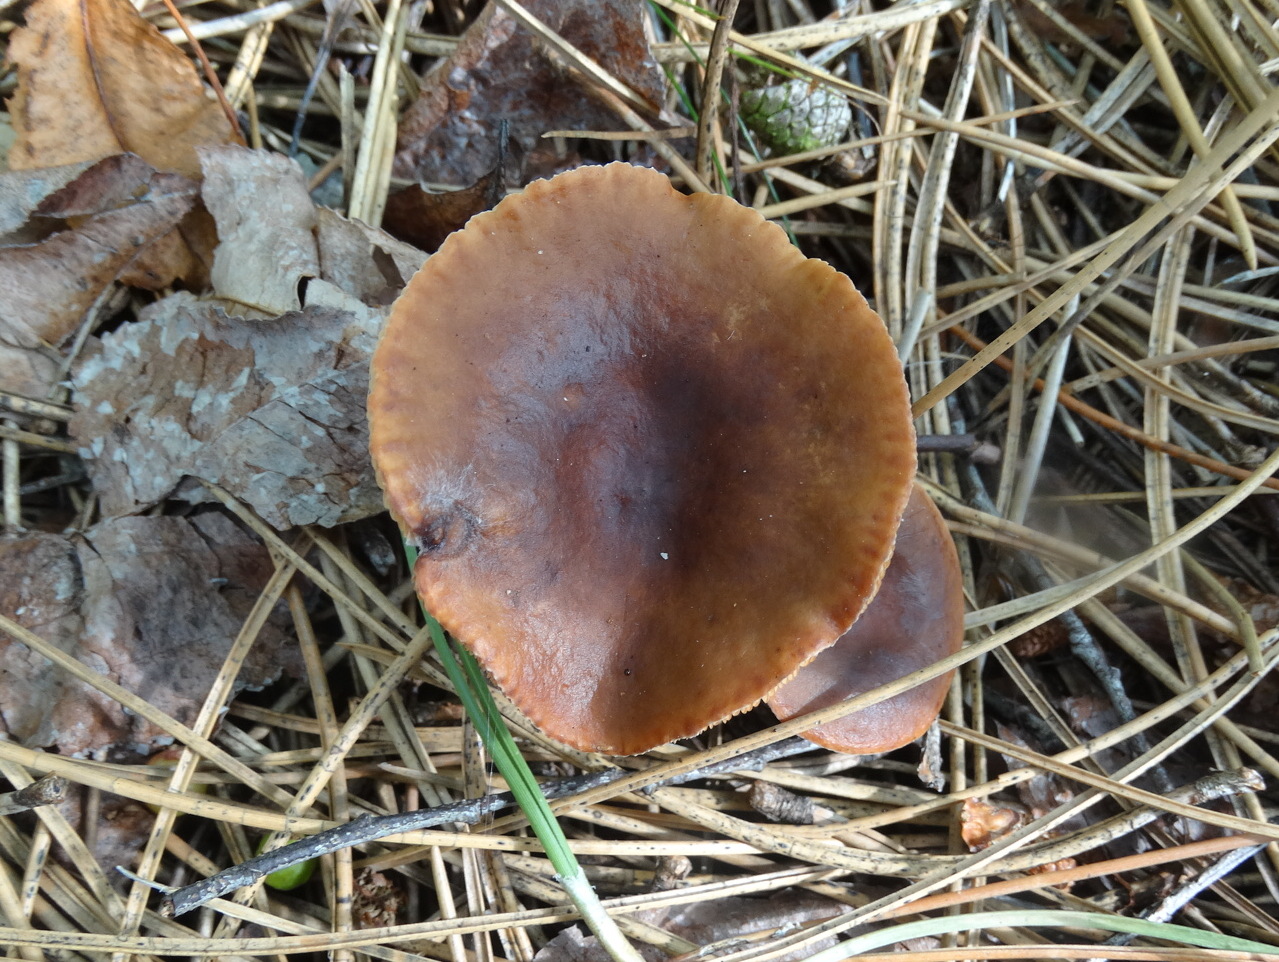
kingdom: Fungi
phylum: Basidiomycota
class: Agaricomycetes
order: Russulales
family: Russulaceae
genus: Lactarius
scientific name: Lactarius hepaticus
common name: leverbrun mælkehat
